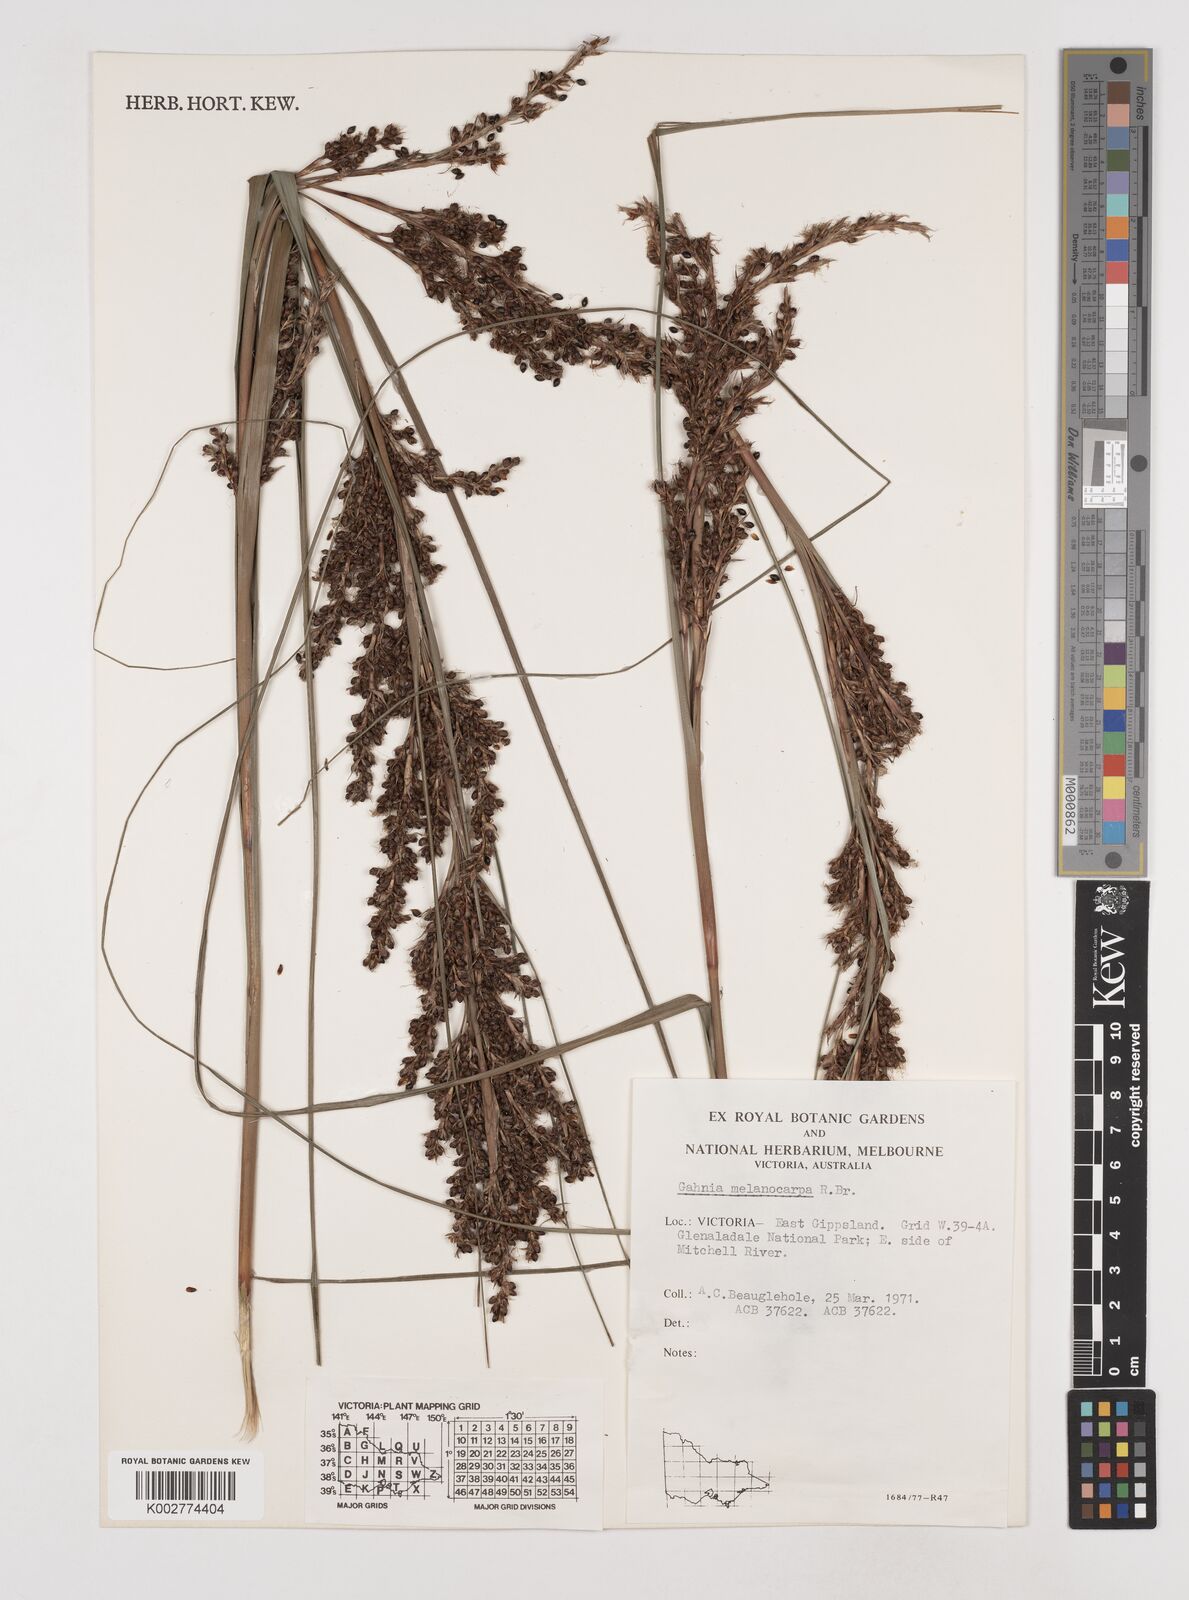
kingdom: Plantae
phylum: Tracheophyta
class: Liliopsida
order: Poales
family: Cyperaceae
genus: Gahnia
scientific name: Gahnia melanocarpa
